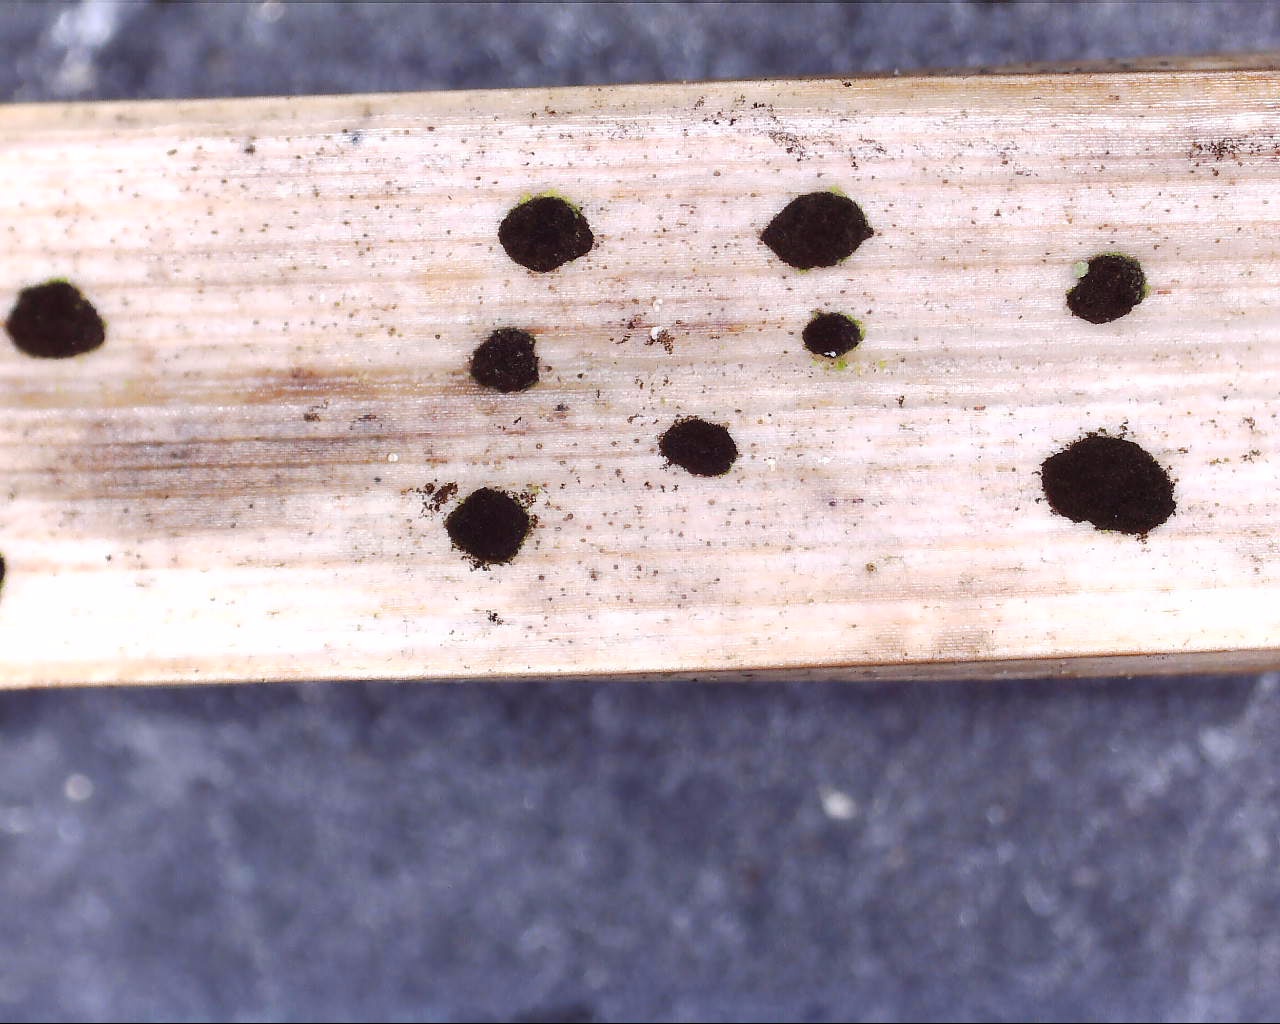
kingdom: Fungi
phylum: Ascomycota
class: Sordariomycetes
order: Xylariales
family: Apiosporaceae
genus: Arthrinium
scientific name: Arthrinium sporophleum
